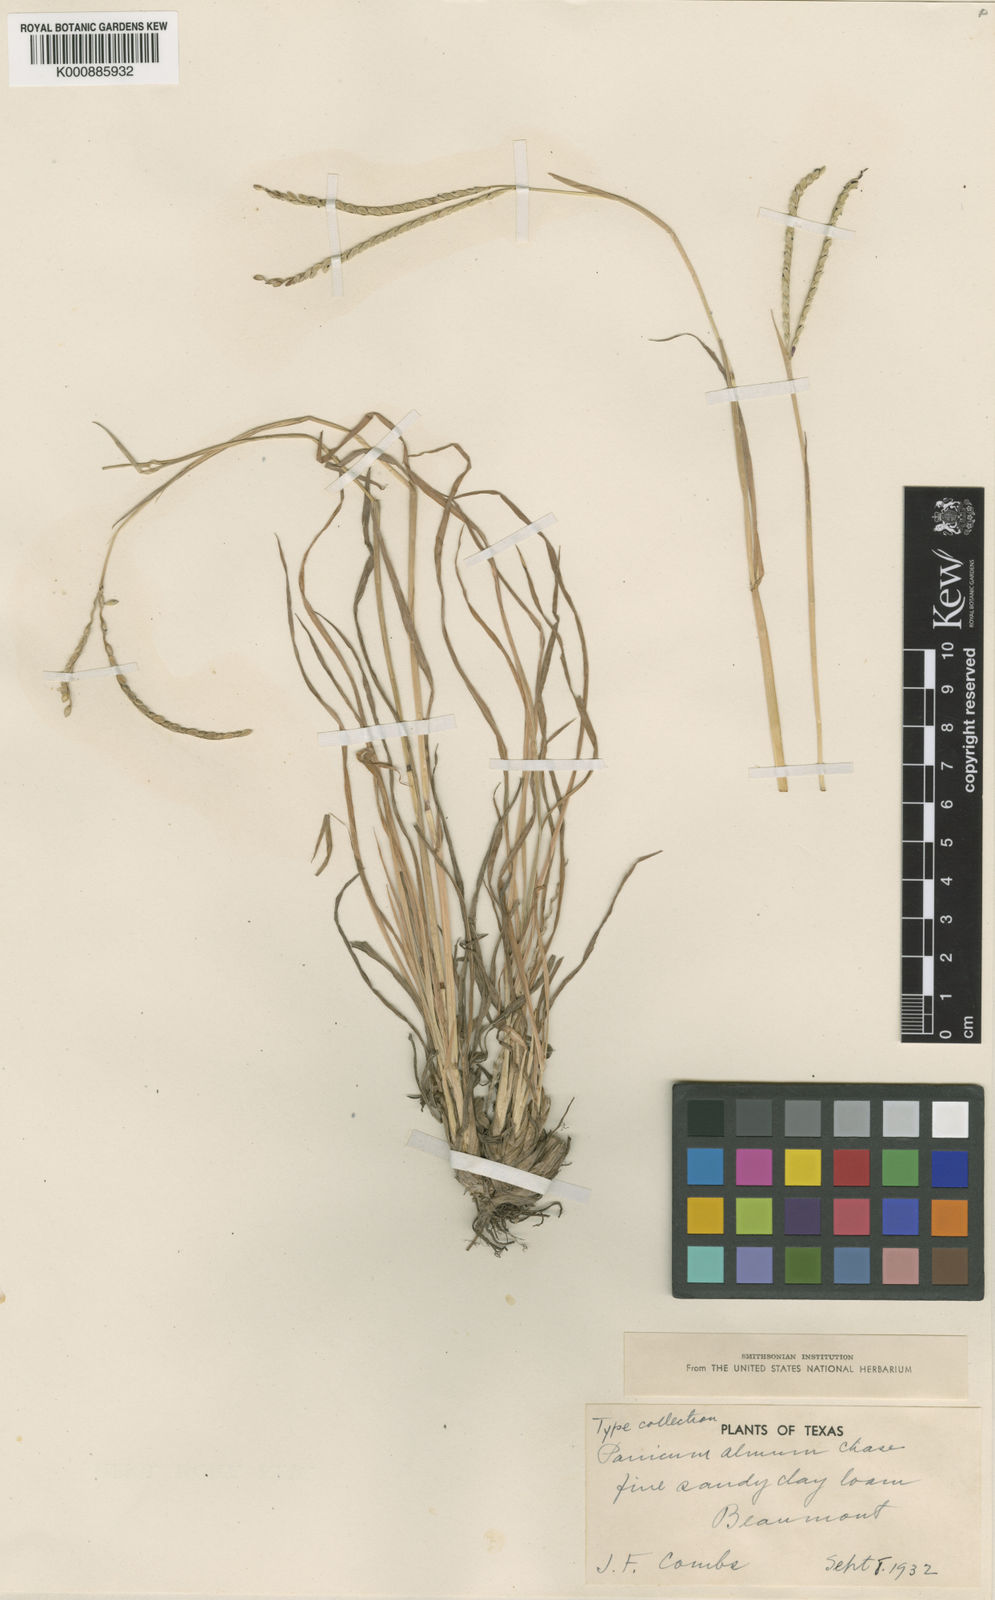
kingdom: Plantae
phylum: Tracheophyta
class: Liliopsida
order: Poales
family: Poaceae
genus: Paspalum
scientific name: Paspalum almum
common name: Comb's crowngrass
